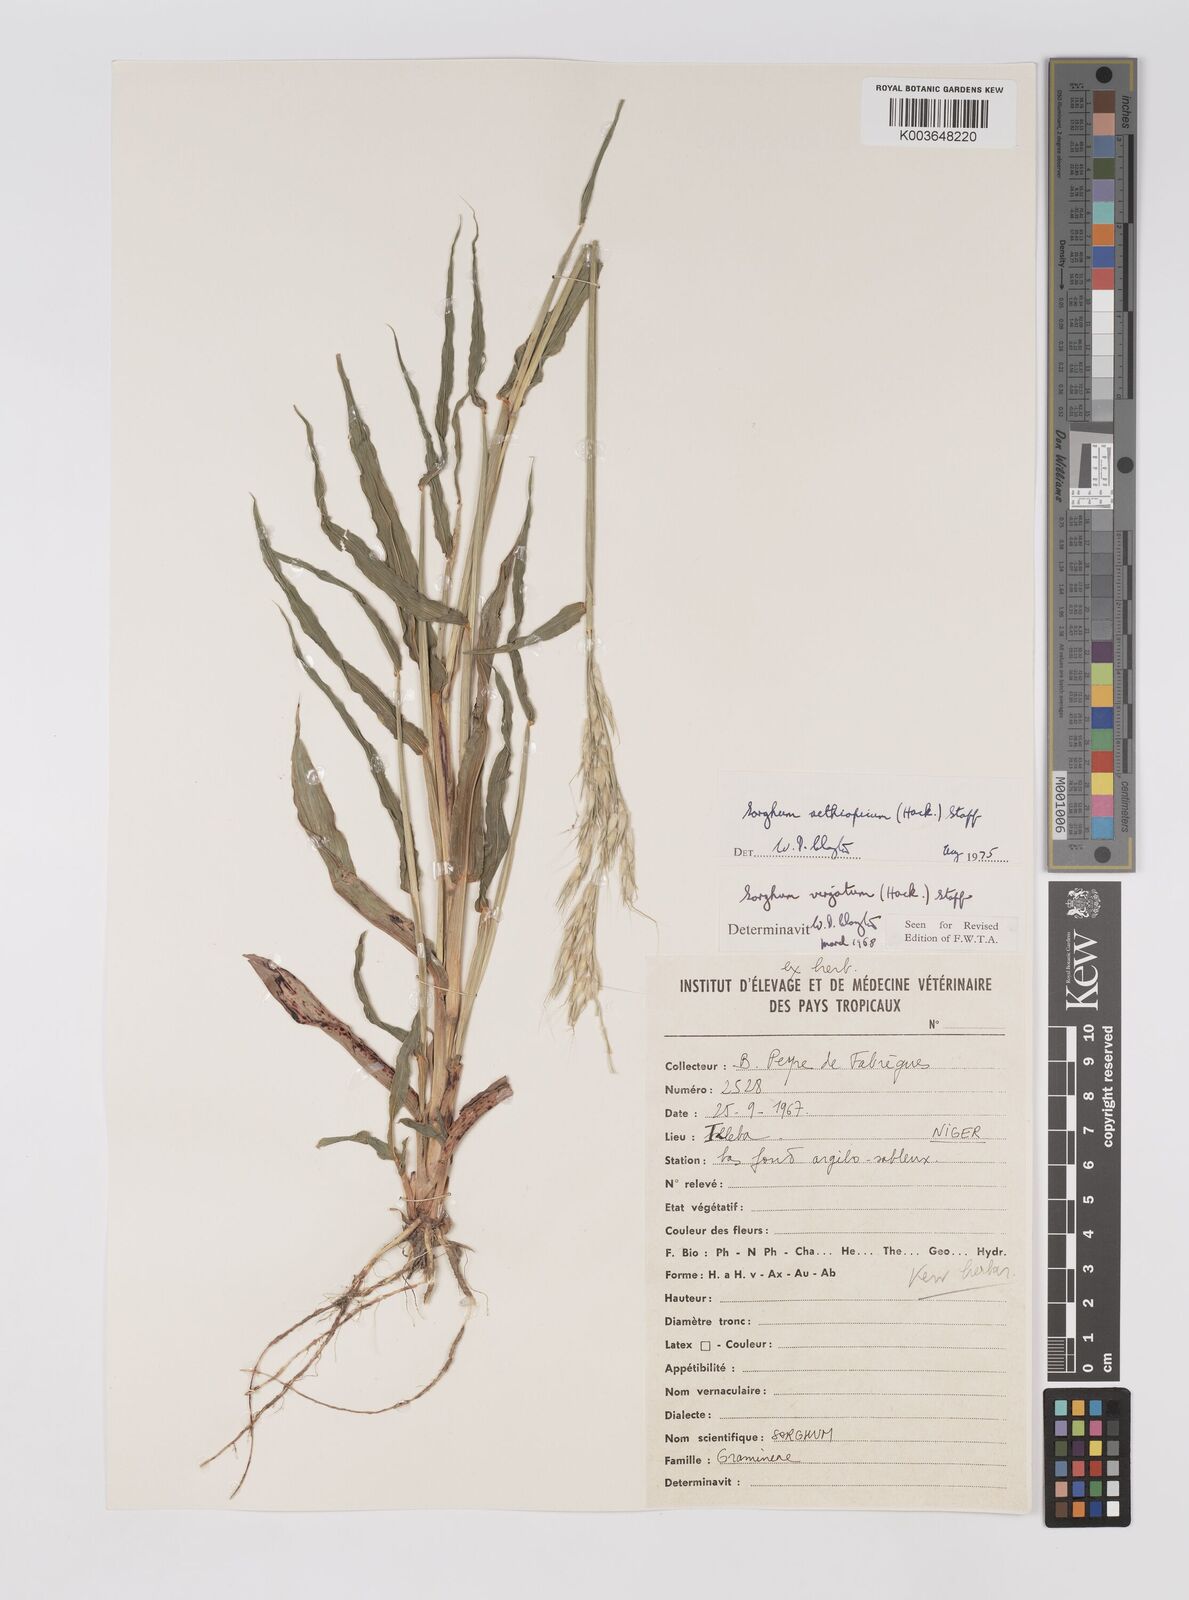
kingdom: Plantae
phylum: Tracheophyta
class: Liliopsida
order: Poales
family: Poaceae
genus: Sorghum
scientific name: Sorghum arundinaceum
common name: Sorghum
